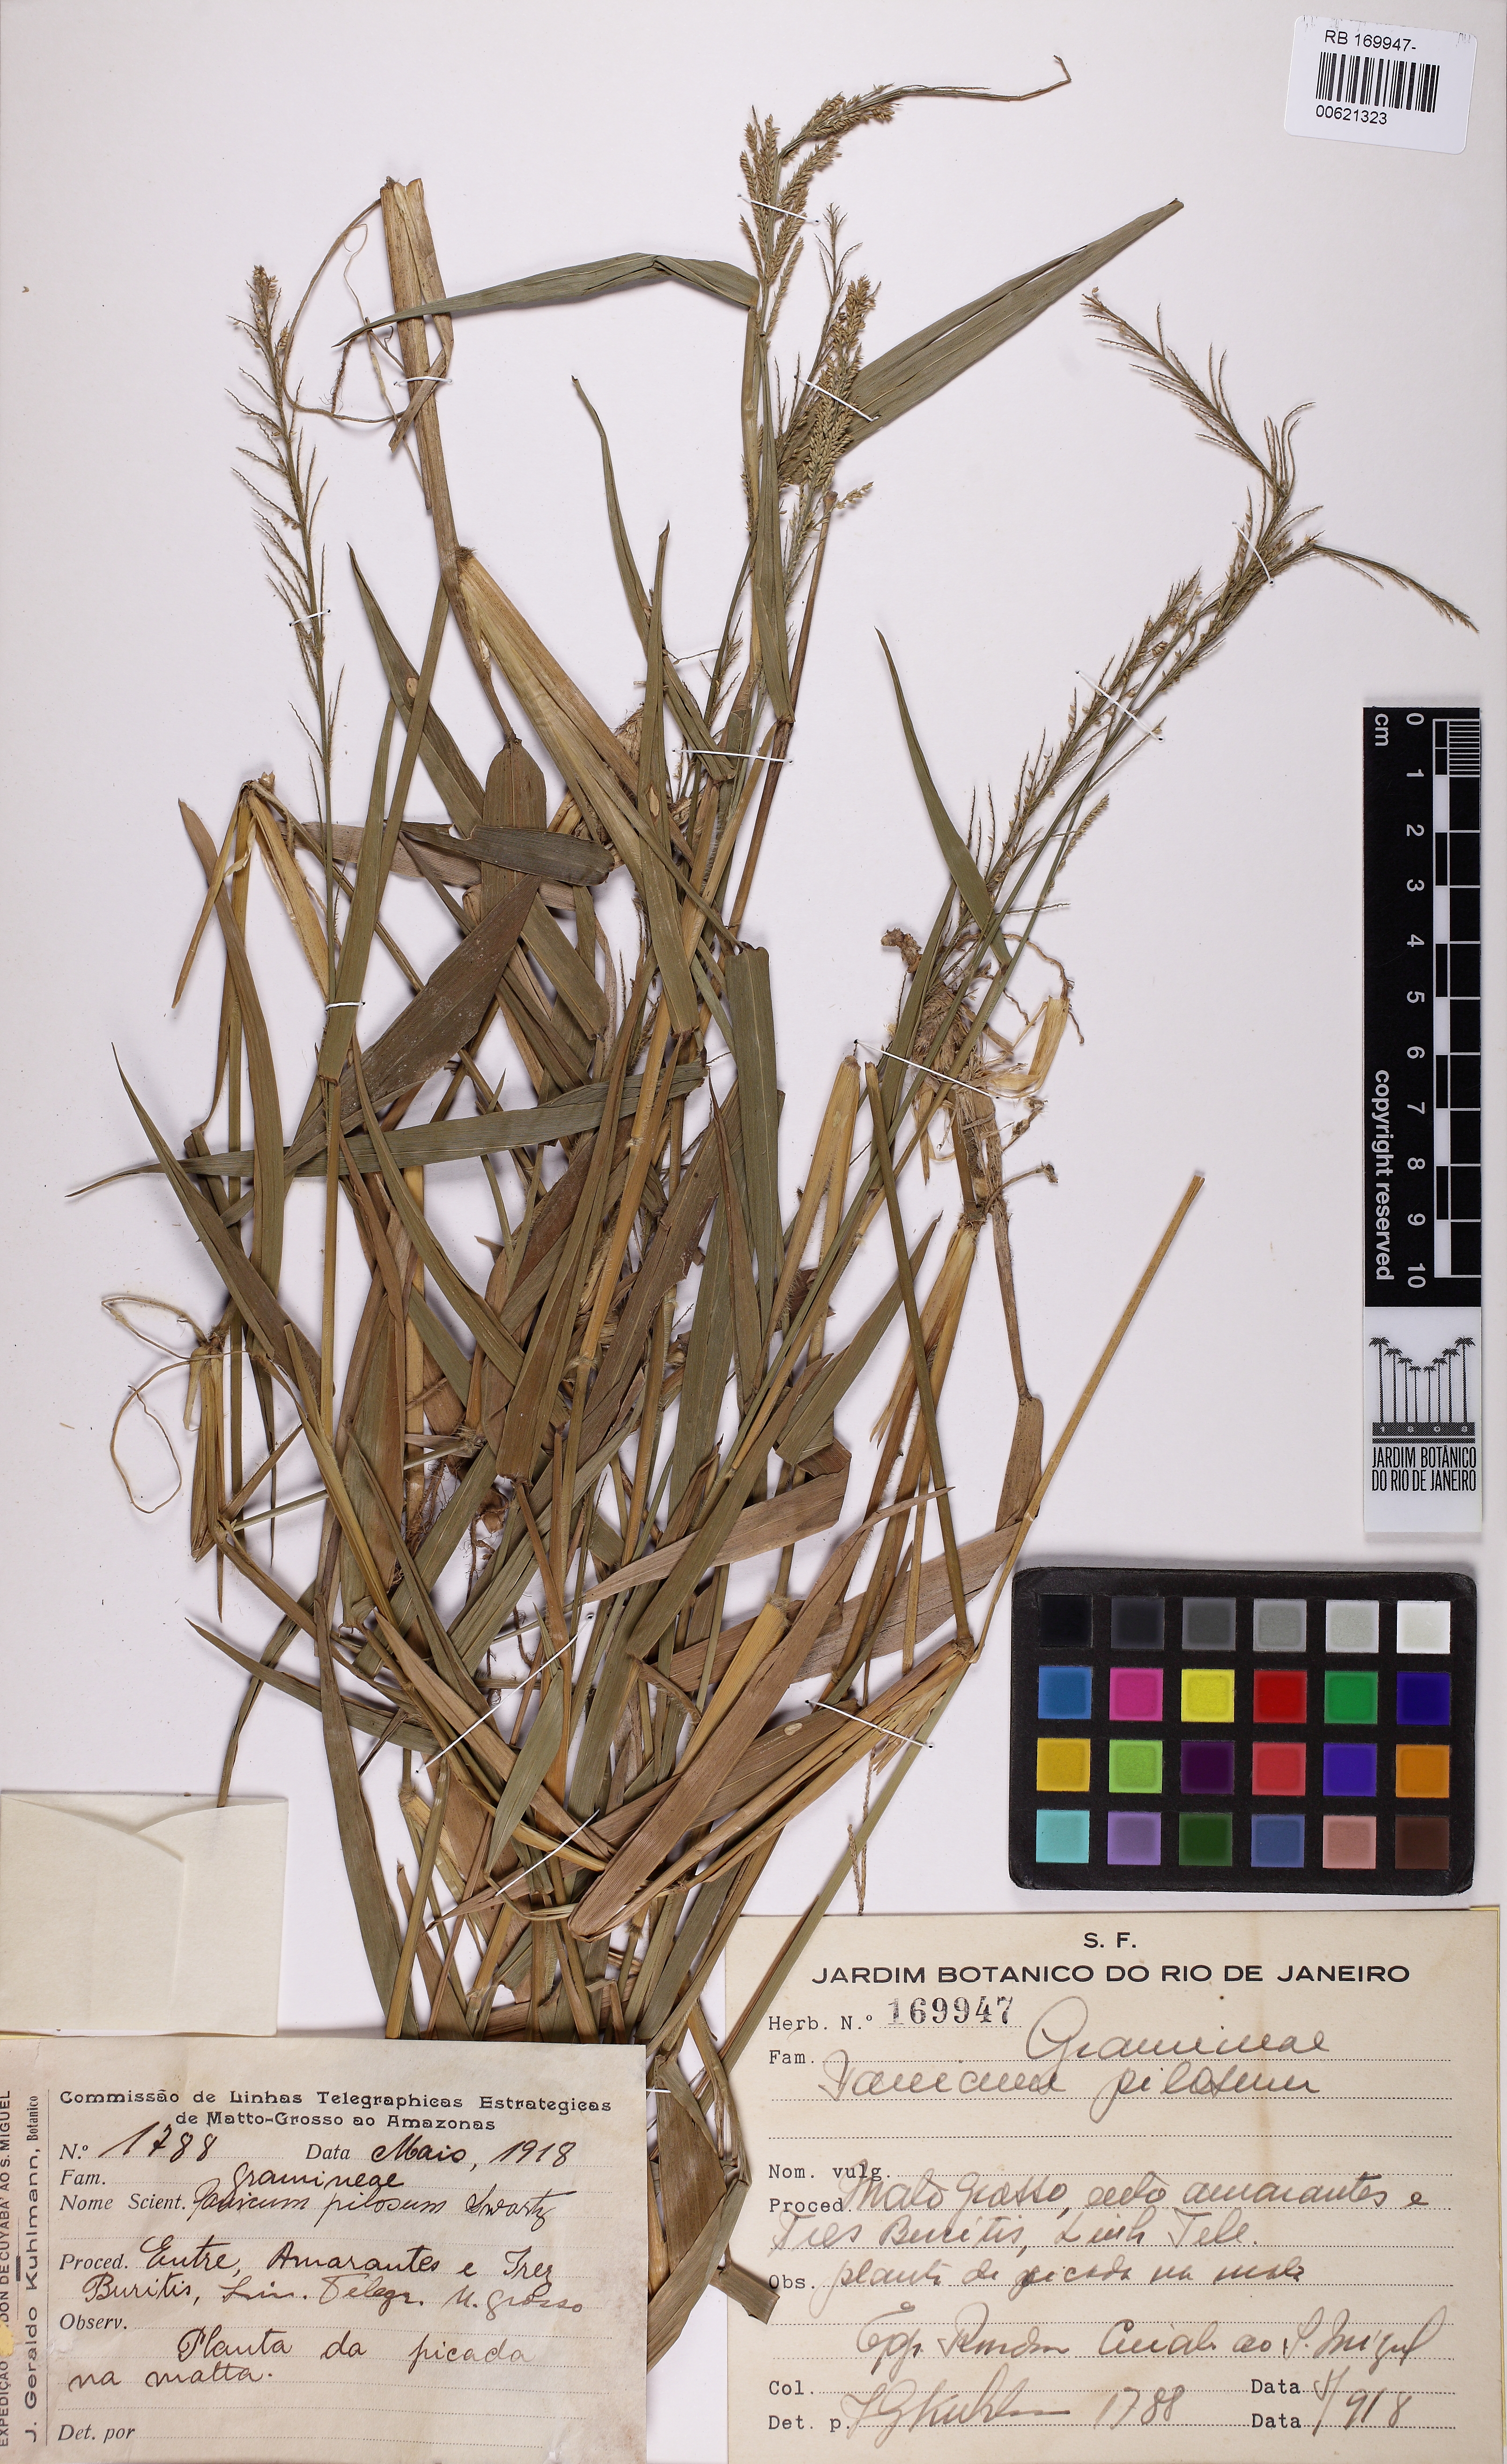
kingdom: Plantae
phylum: Tracheophyta
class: Liliopsida
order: Poales
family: Poaceae
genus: Rugoloa
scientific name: Rugoloa pilosa
